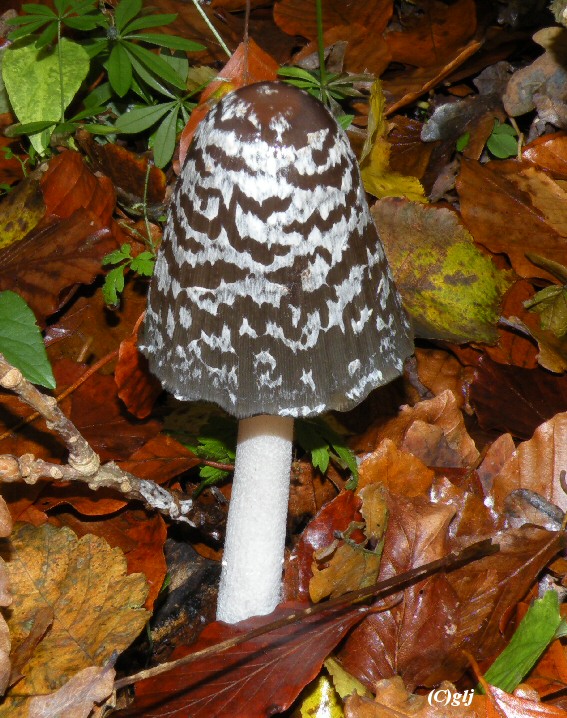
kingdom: Fungi
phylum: Basidiomycota
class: Agaricomycetes
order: Agaricales
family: Psathyrellaceae
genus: Coprinopsis
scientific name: Coprinopsis picacea
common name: skade-blækhat
